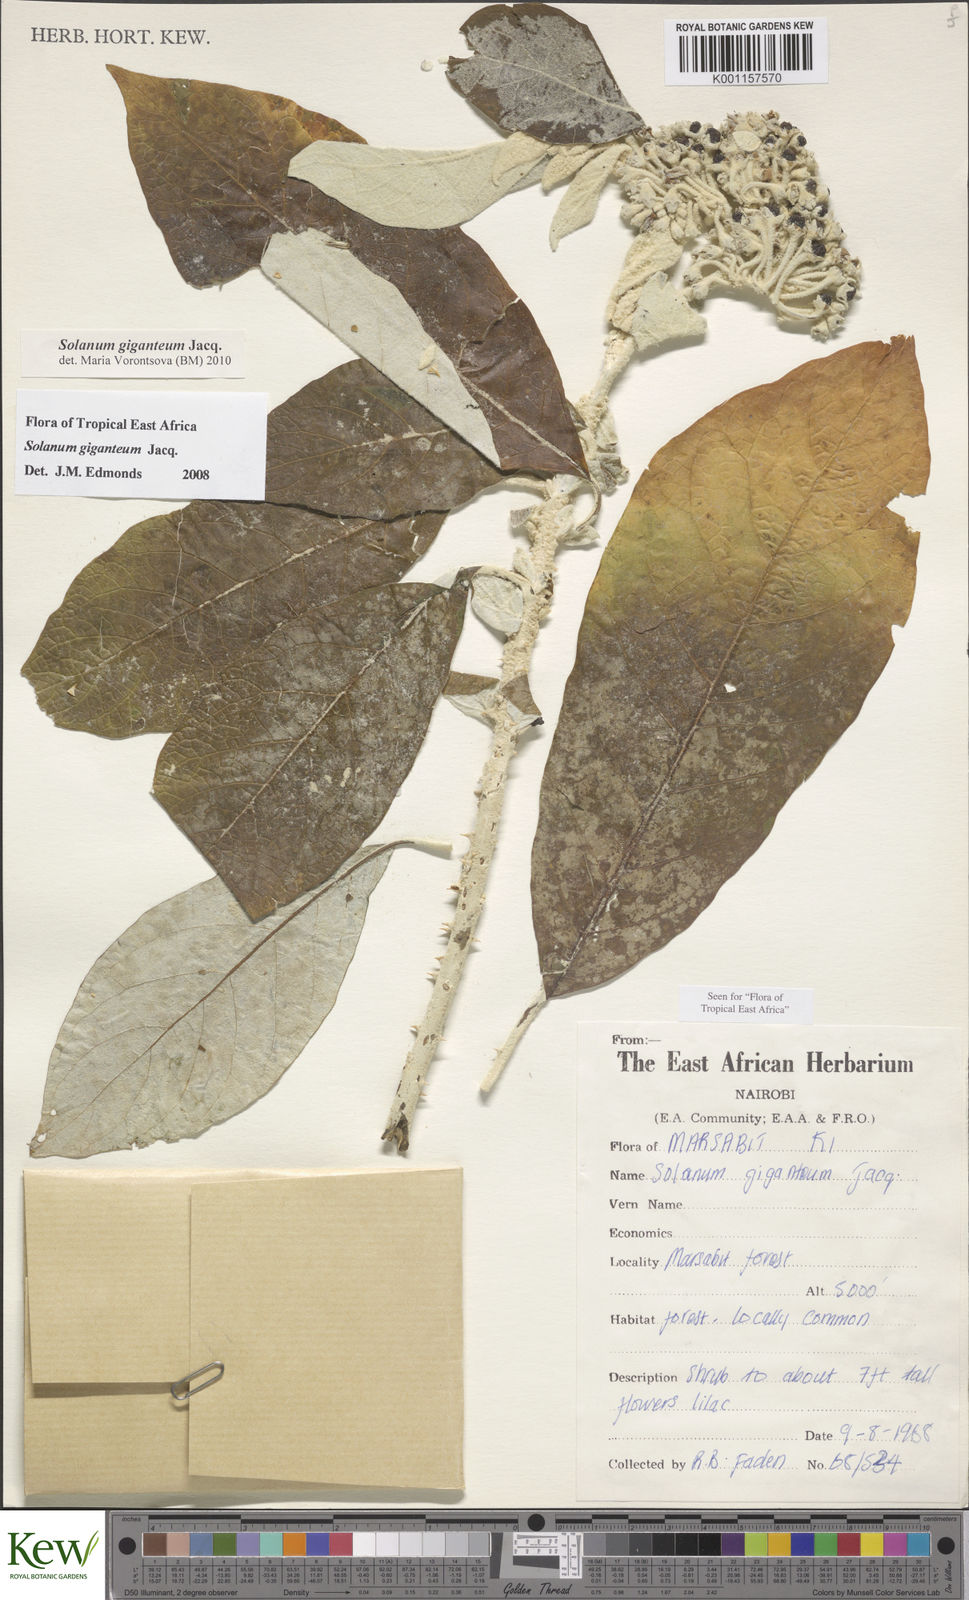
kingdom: Plantae
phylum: Tracheophyta
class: Magnoliopsida
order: Solanales
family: Solanaceae
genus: Solanum
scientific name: Solanum giganteum
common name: Healing-leaf-tree
